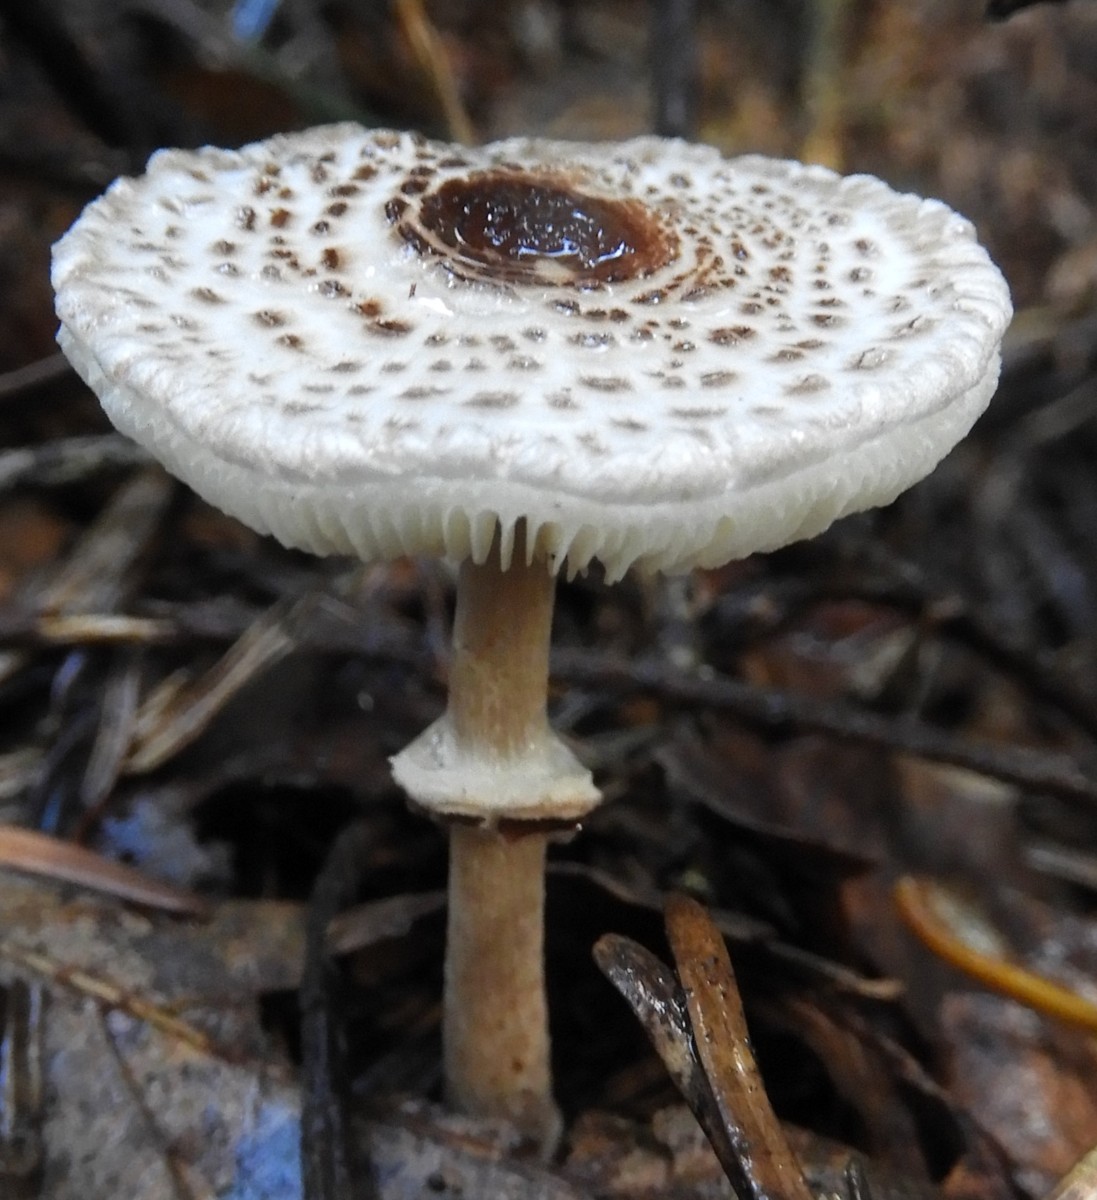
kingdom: Fungi
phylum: Basidiomycota
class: Agaricomycetes
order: Agaricales
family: Agaricaceae
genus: Lepiota
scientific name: Lepiota felina
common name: sortskællet parasolhat
